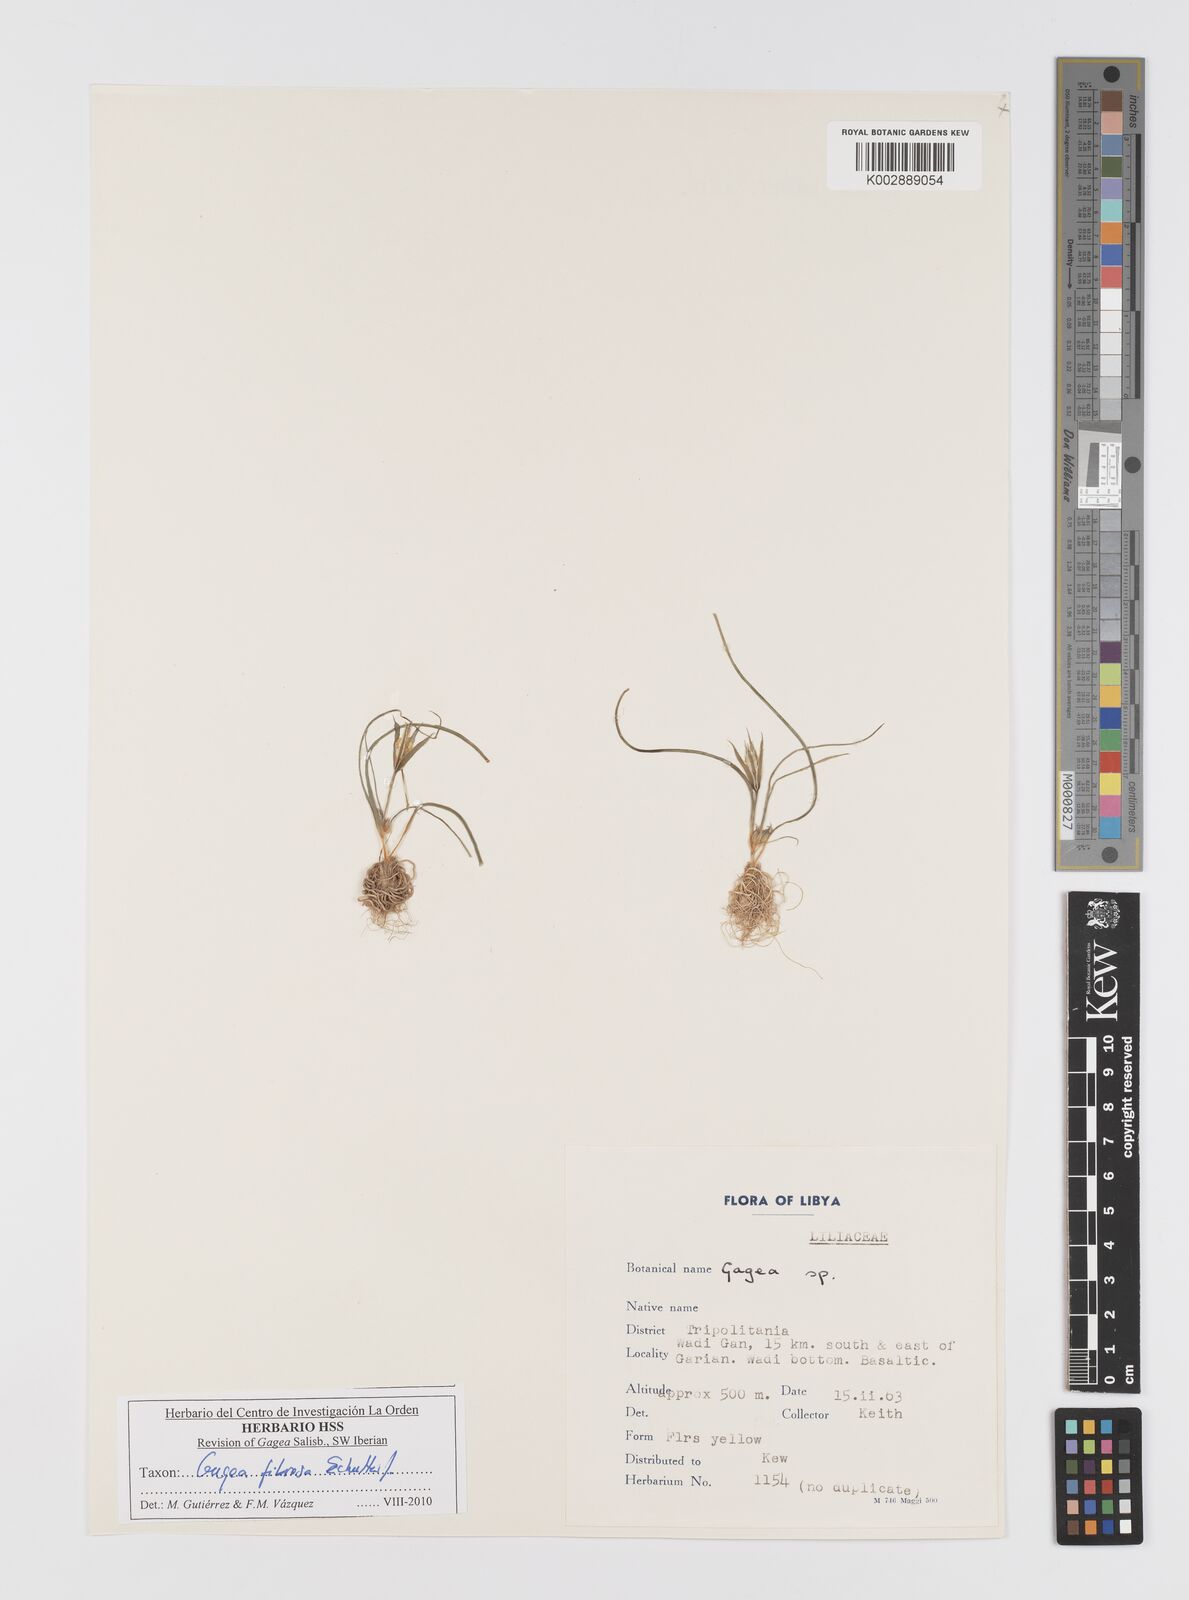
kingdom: Plantae
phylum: Tracheophyta
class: Liliopsida
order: Liliales
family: Liliaceae
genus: Gagea
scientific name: Gagea fibrosa
